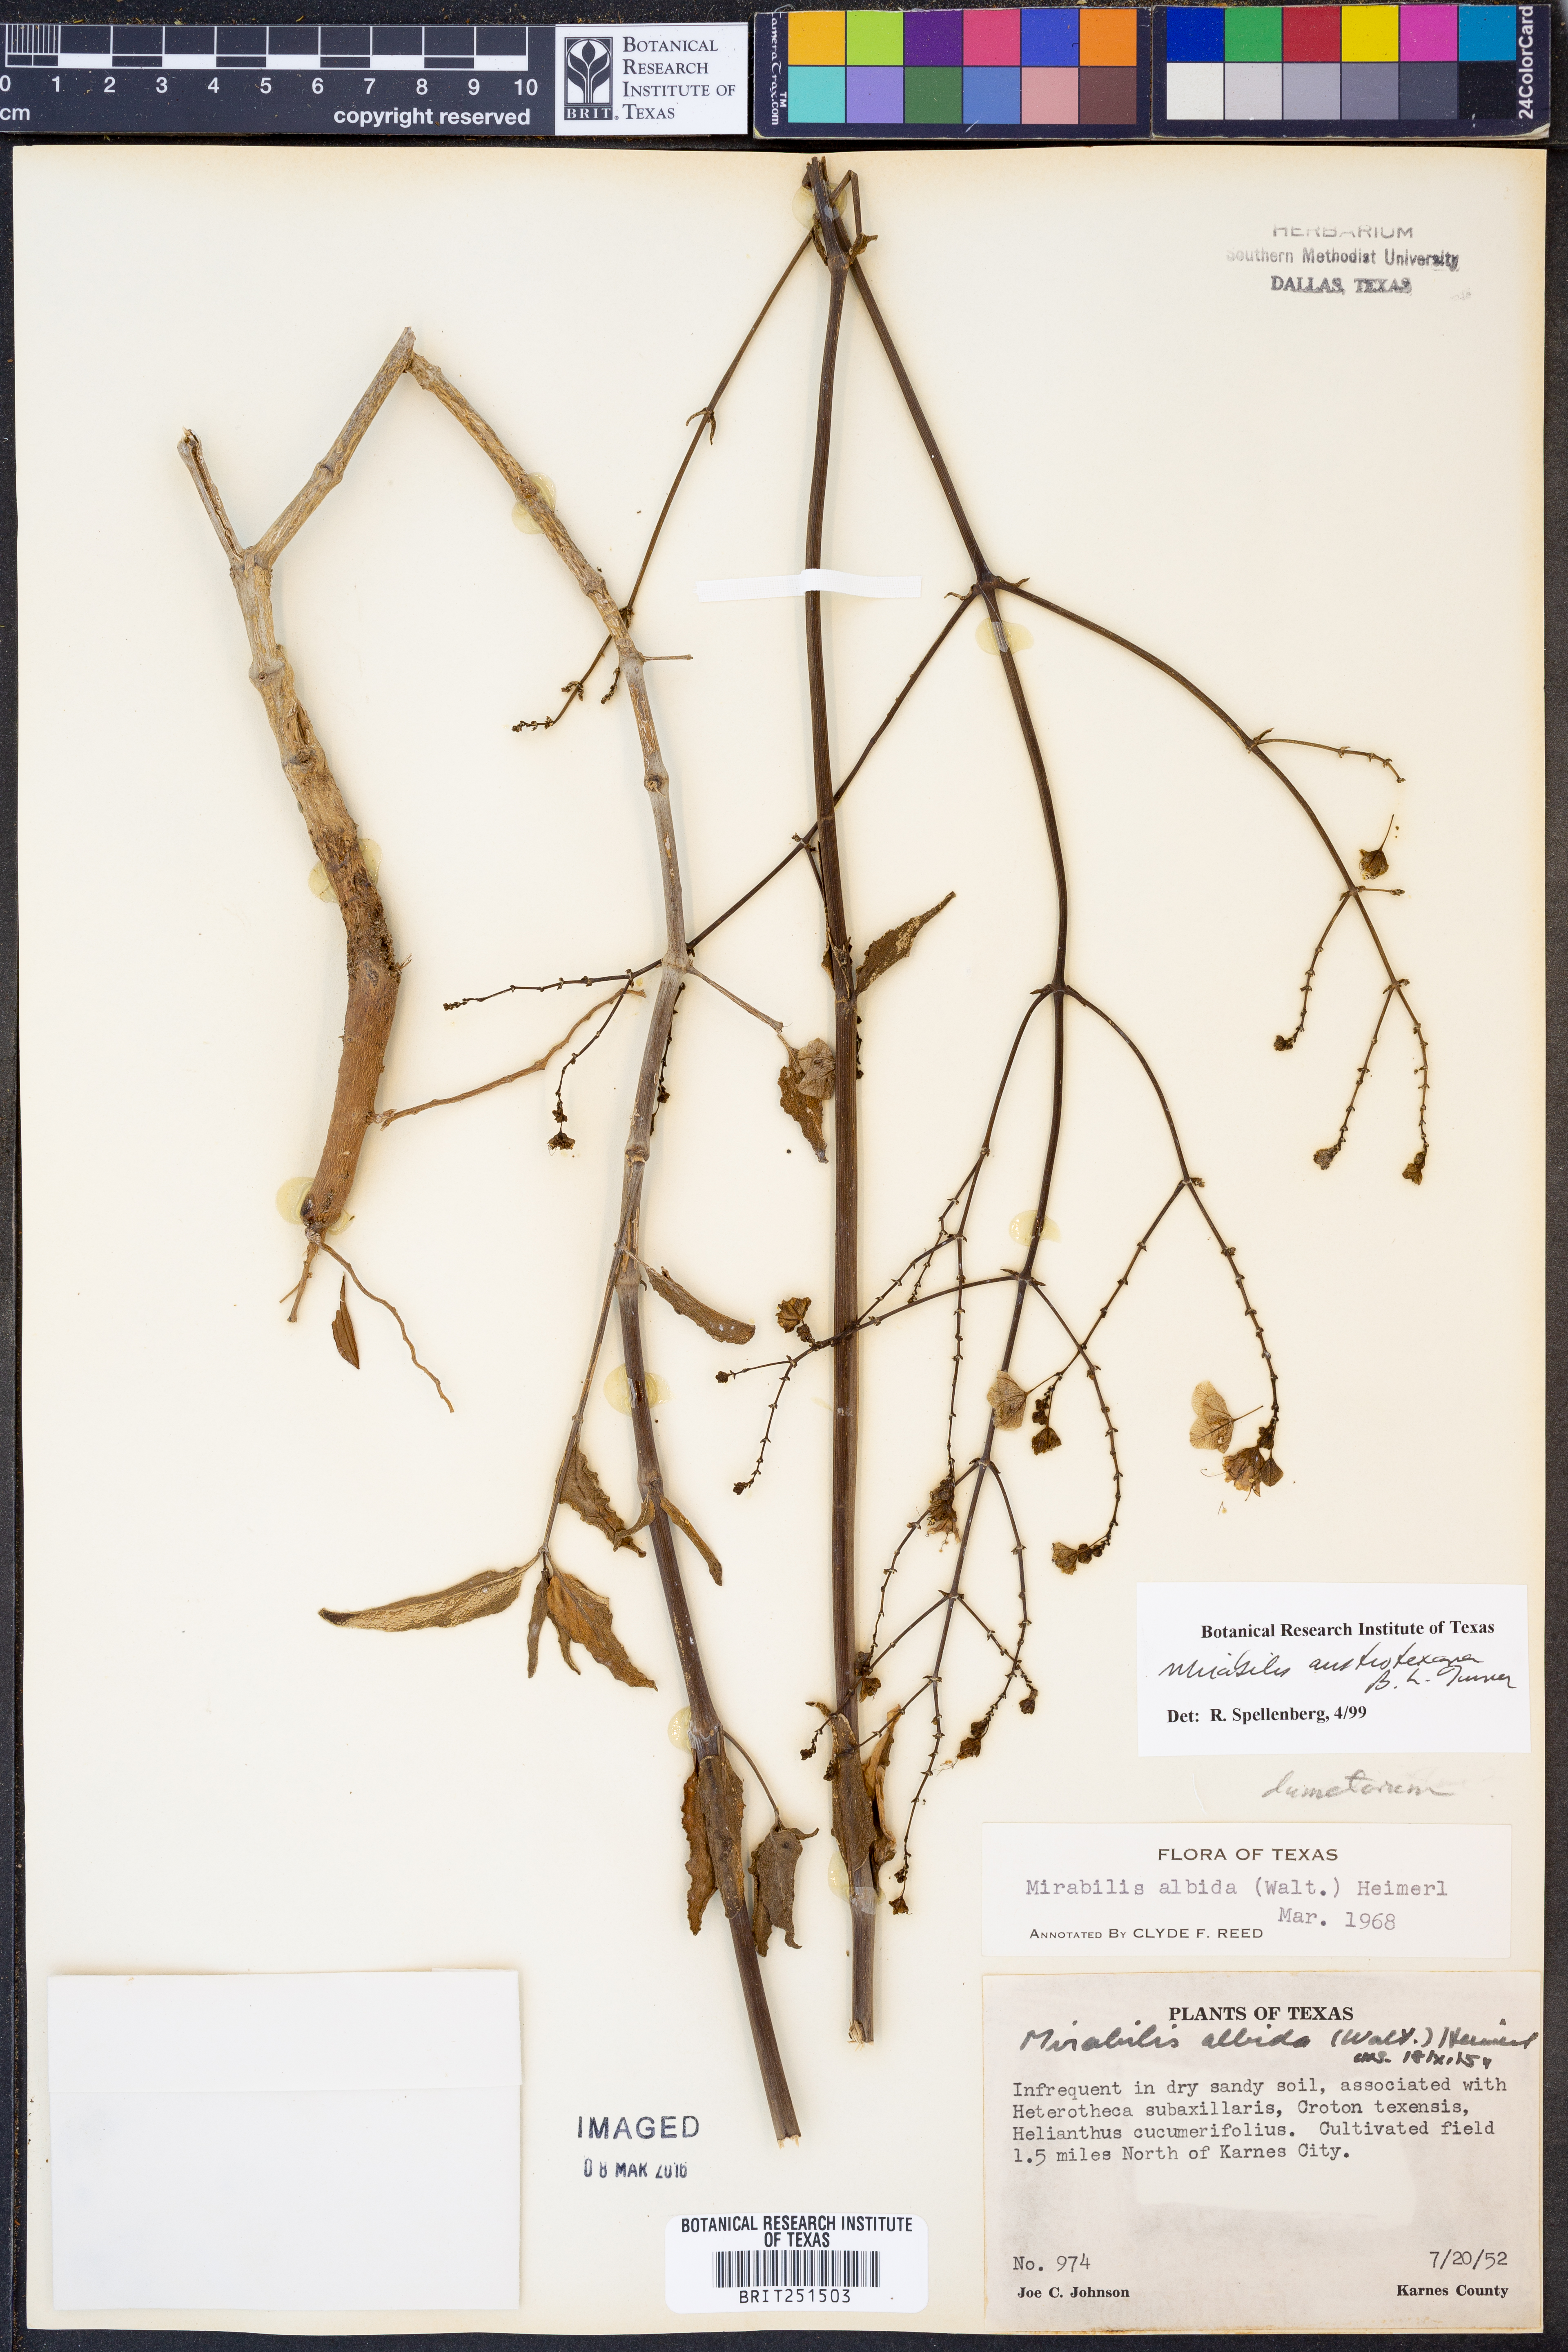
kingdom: Plantae
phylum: Tracheophyta
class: Magnoliopsida
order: Caryophyllales
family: Nyctaginaceae
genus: Mirabilis
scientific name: Mirabilis austrotexana
